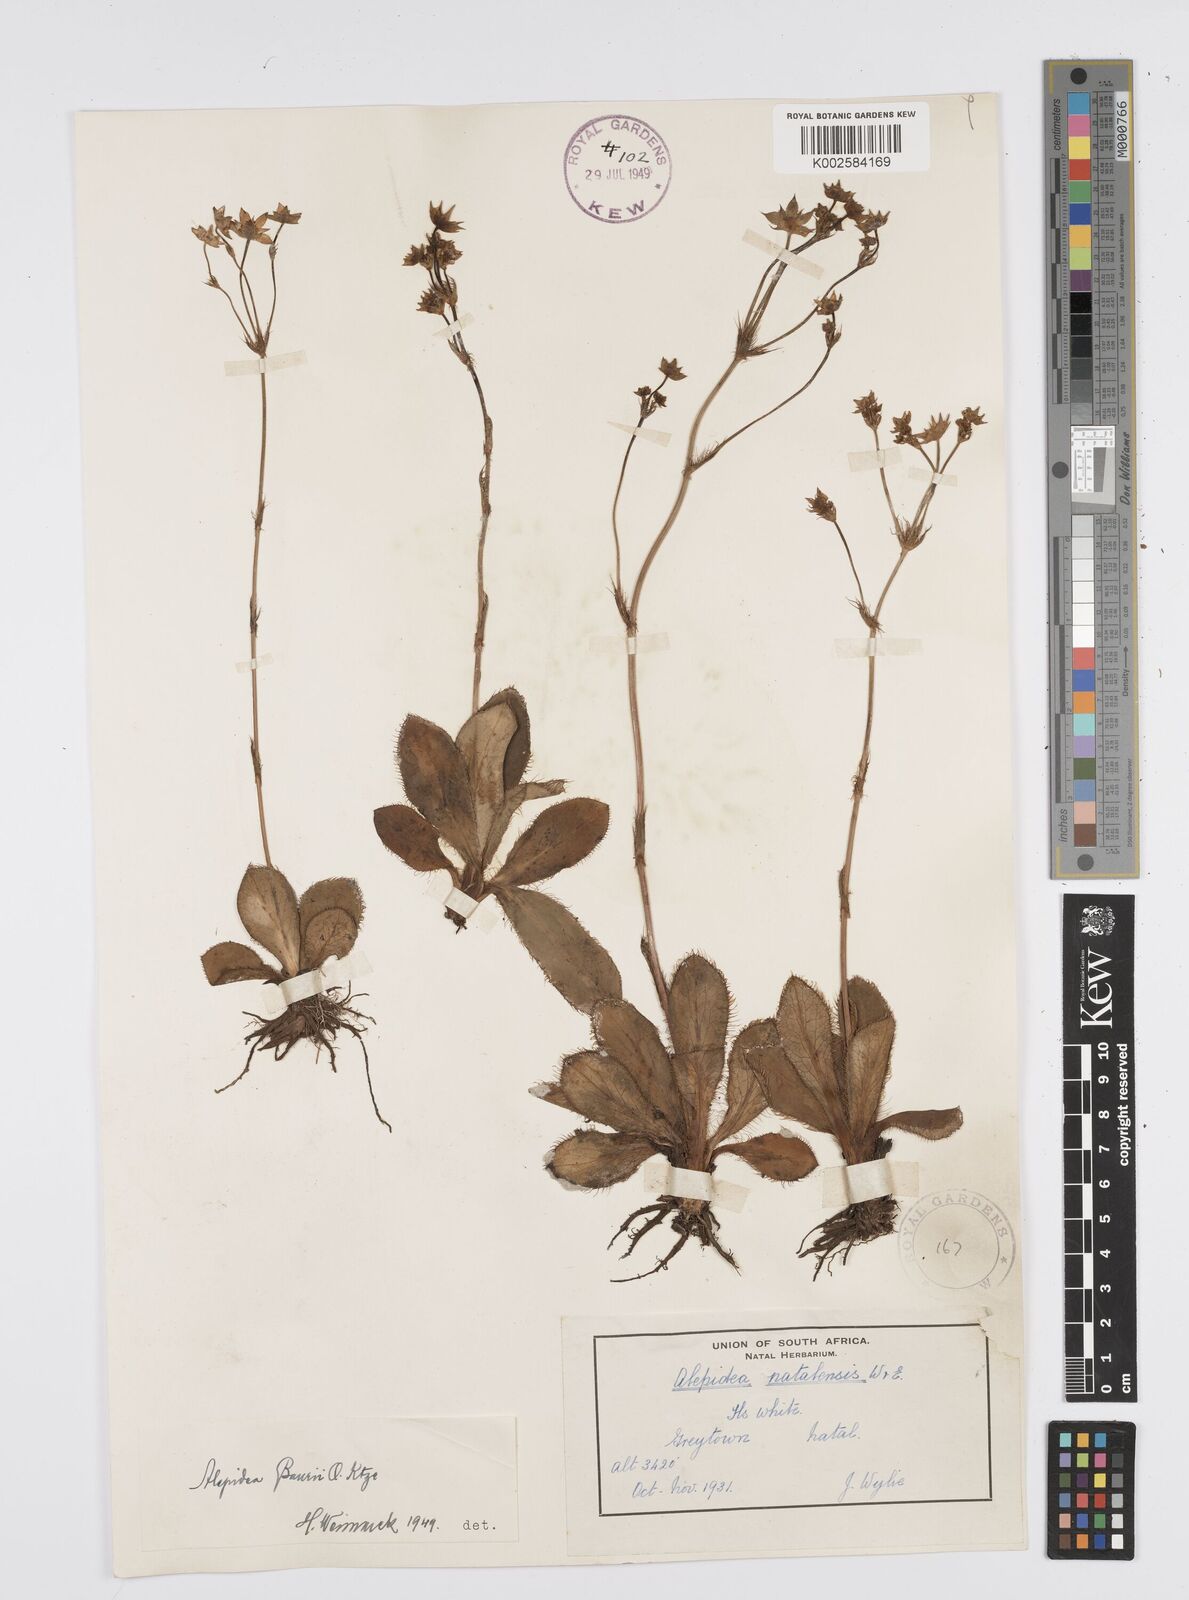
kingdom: Plantae
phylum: Tracheophyta
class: Magnoliopsida
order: Apiales
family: Apiaceae
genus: Alepidea
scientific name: Alepidea natalensis
